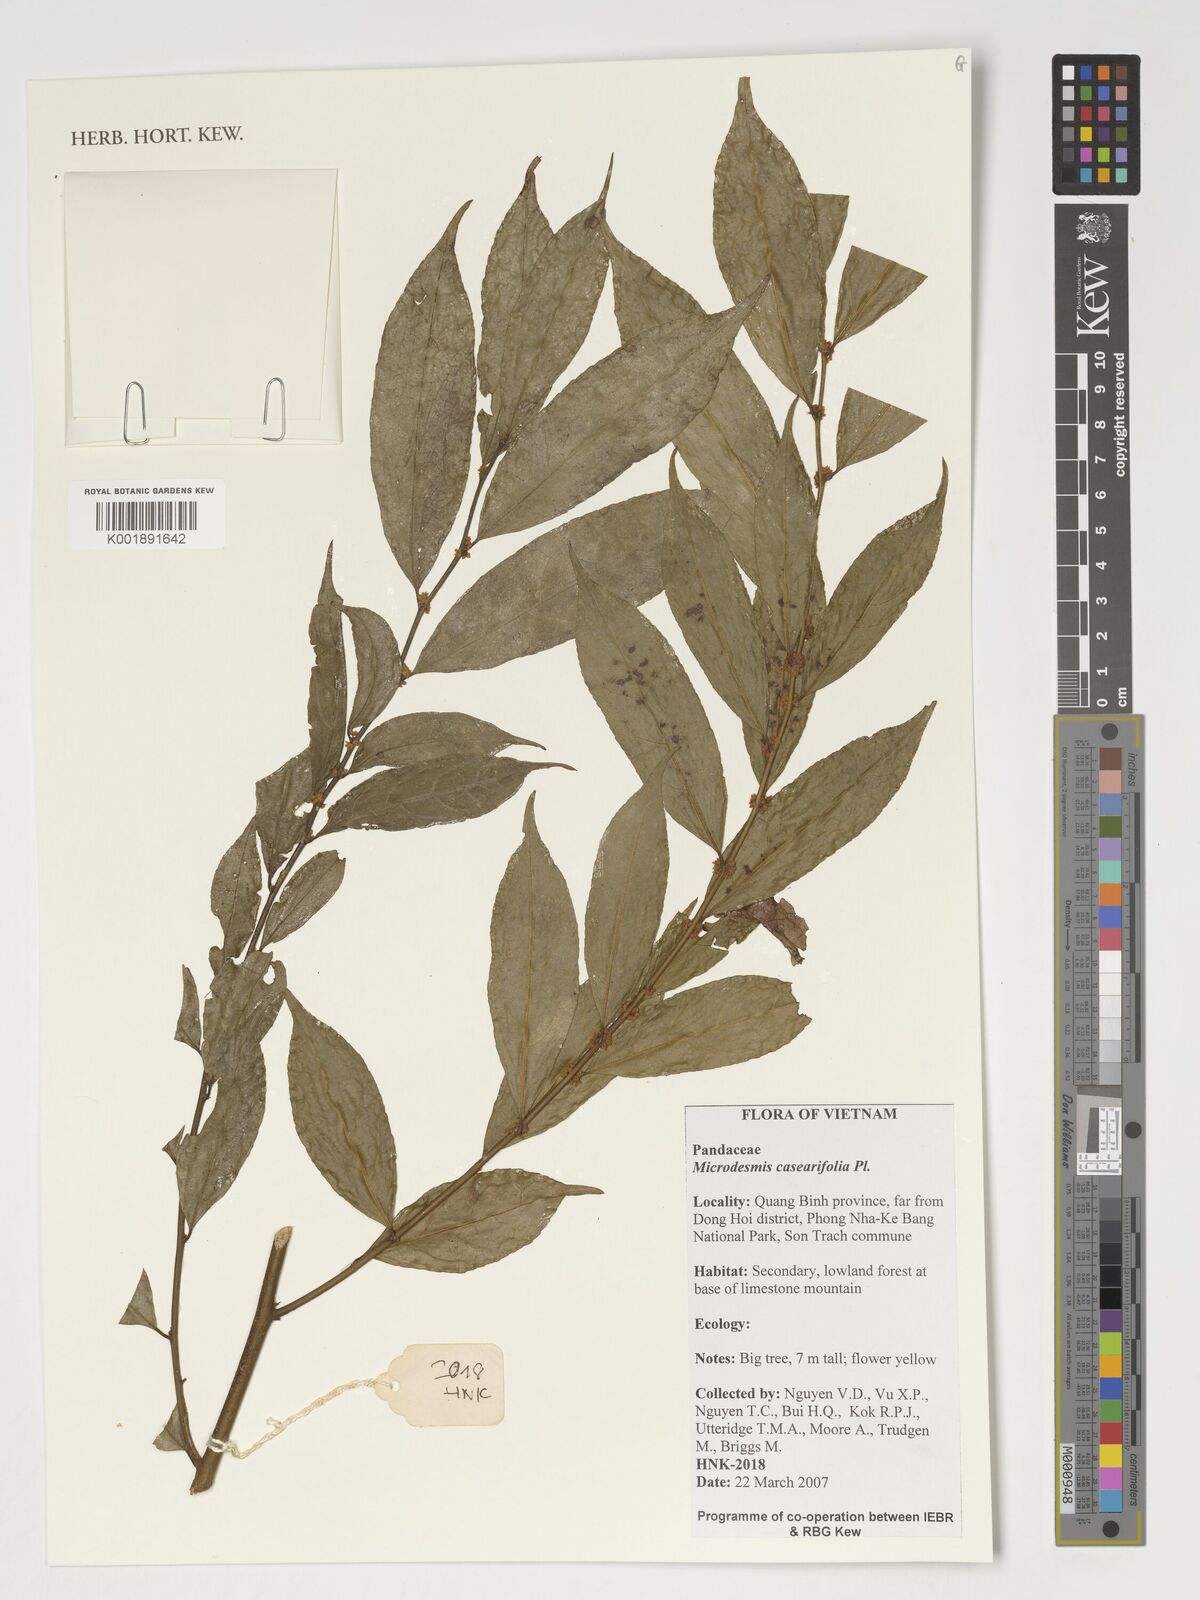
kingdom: Plantae
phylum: Tracheophyta
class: Magnoliopsida
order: Malpighiales
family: Pandaceae
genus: Microdesmis
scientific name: Microdesmis caseariifolia
